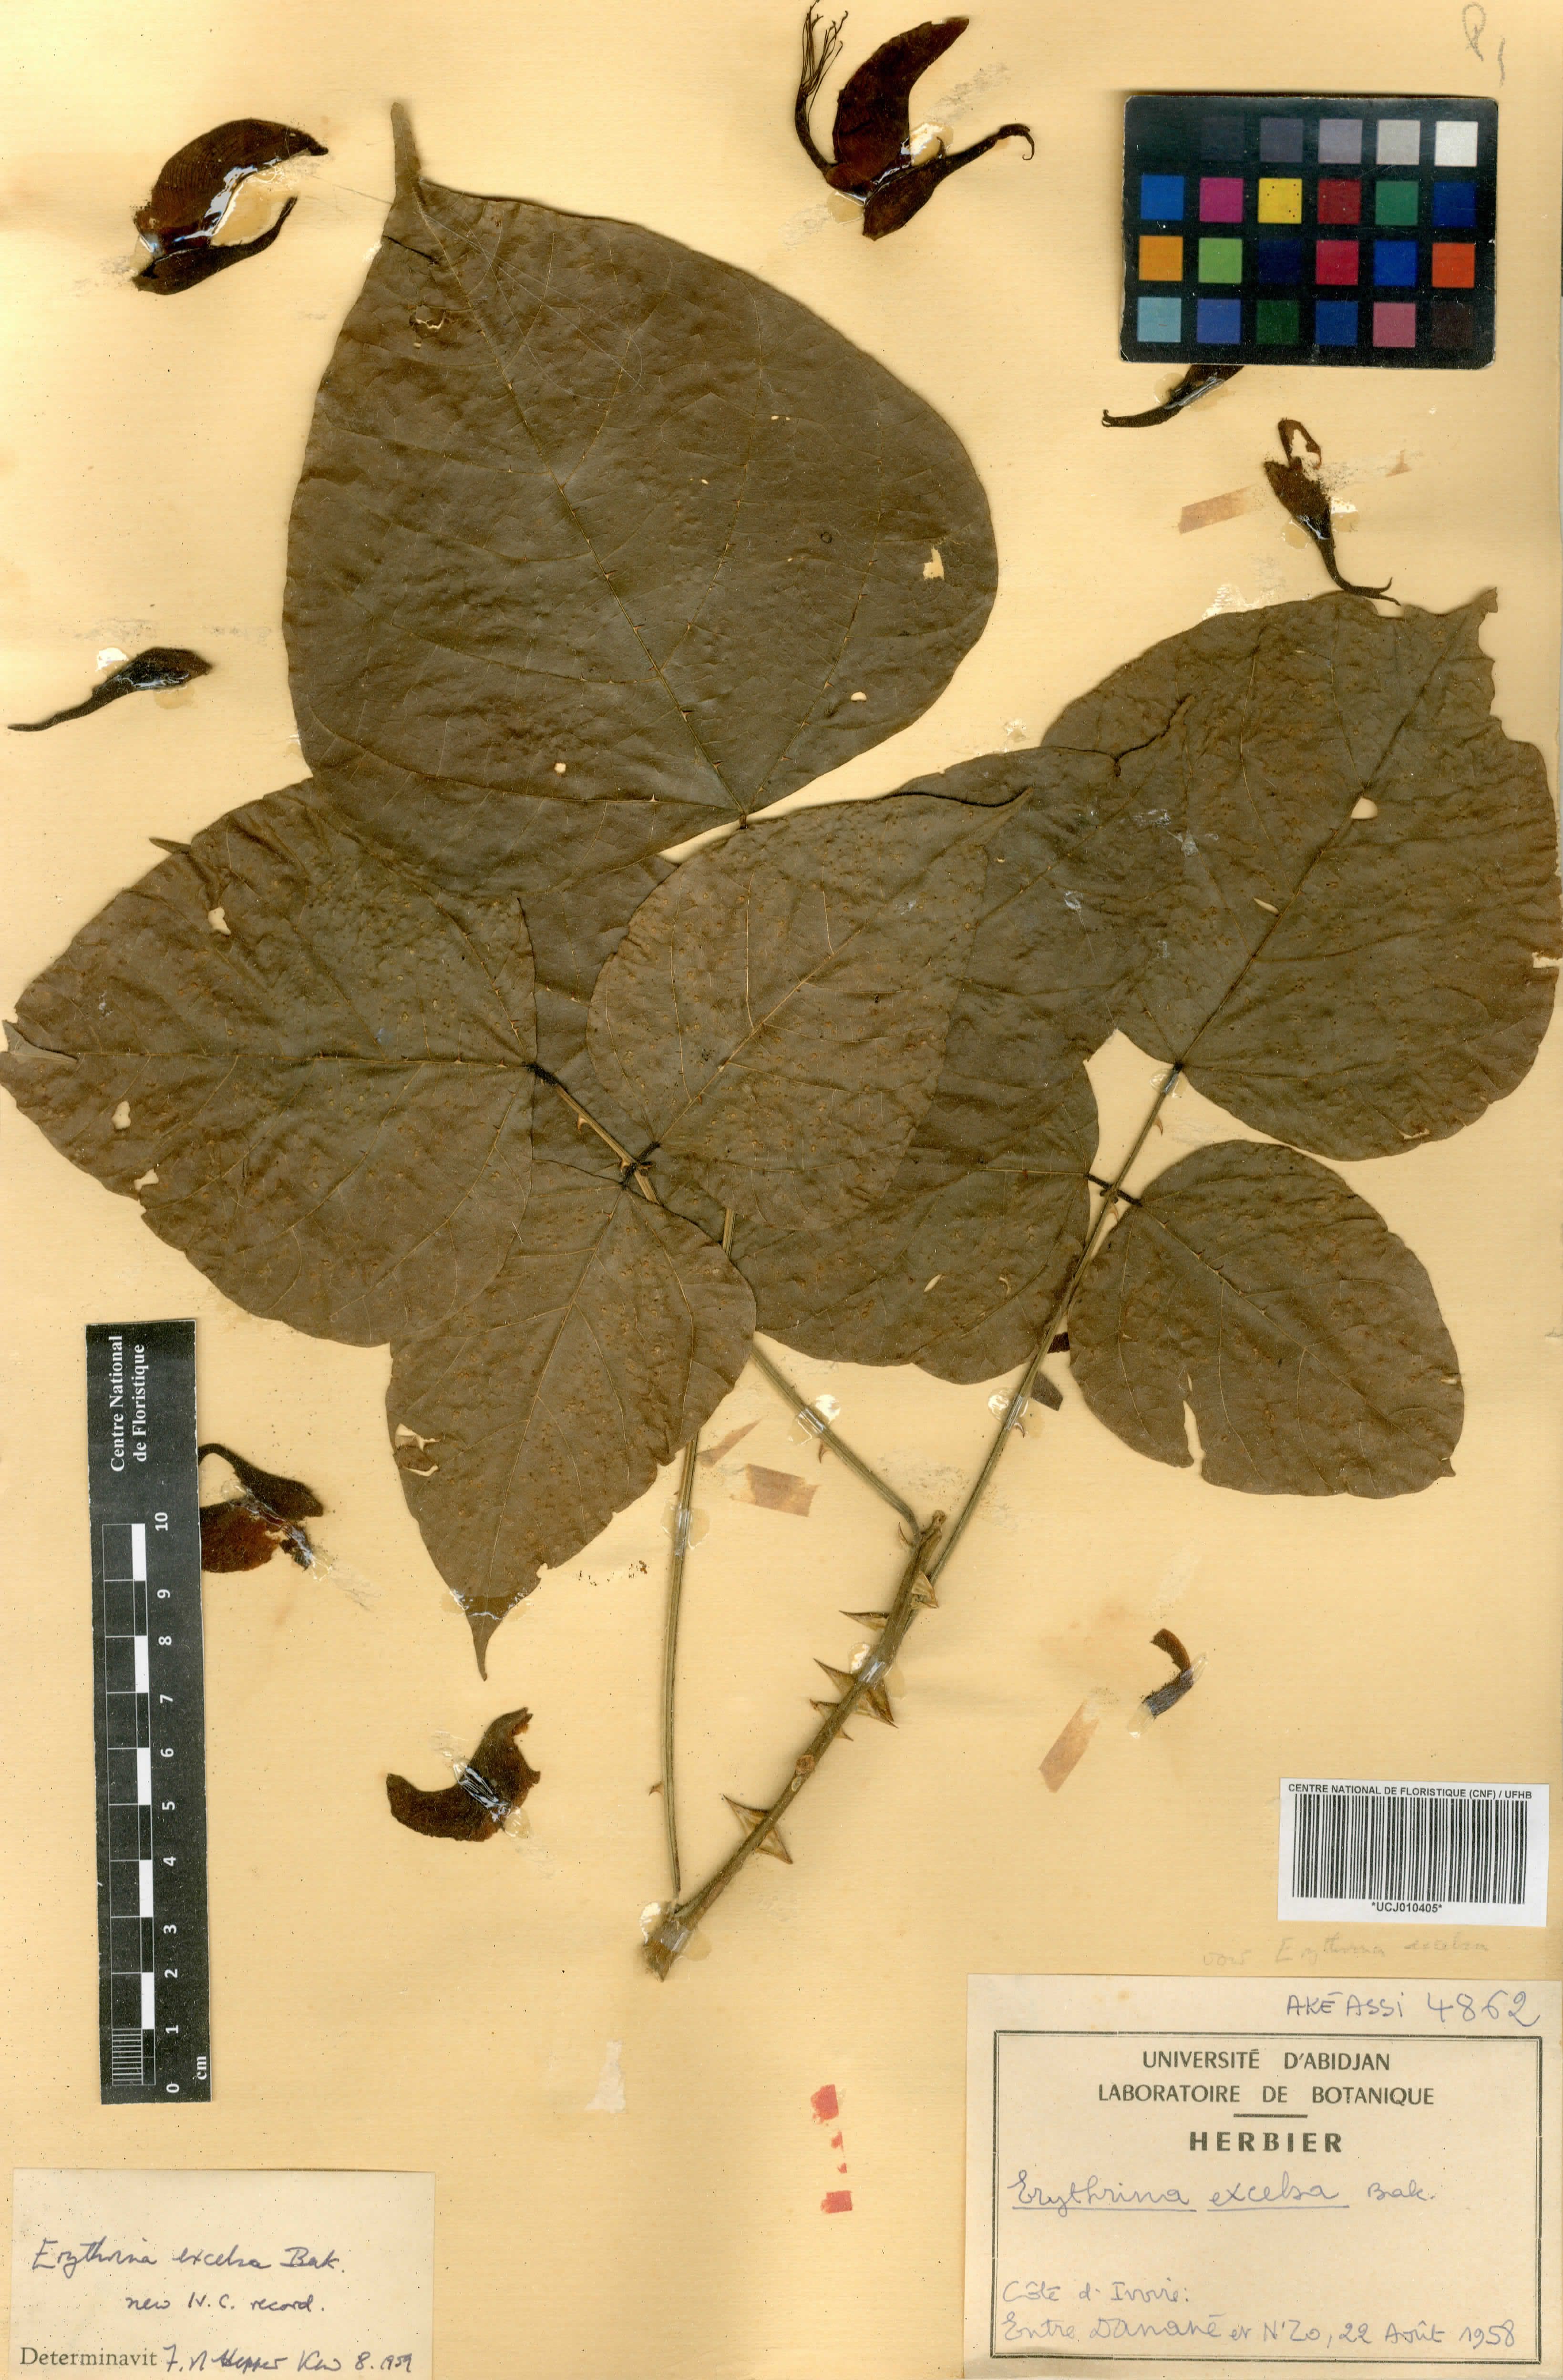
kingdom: Plantae
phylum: Tracheophyta
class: Magnoliopsida
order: Fabales
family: Fabaceae
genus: Erythrina
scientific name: Erythrina excelsa
